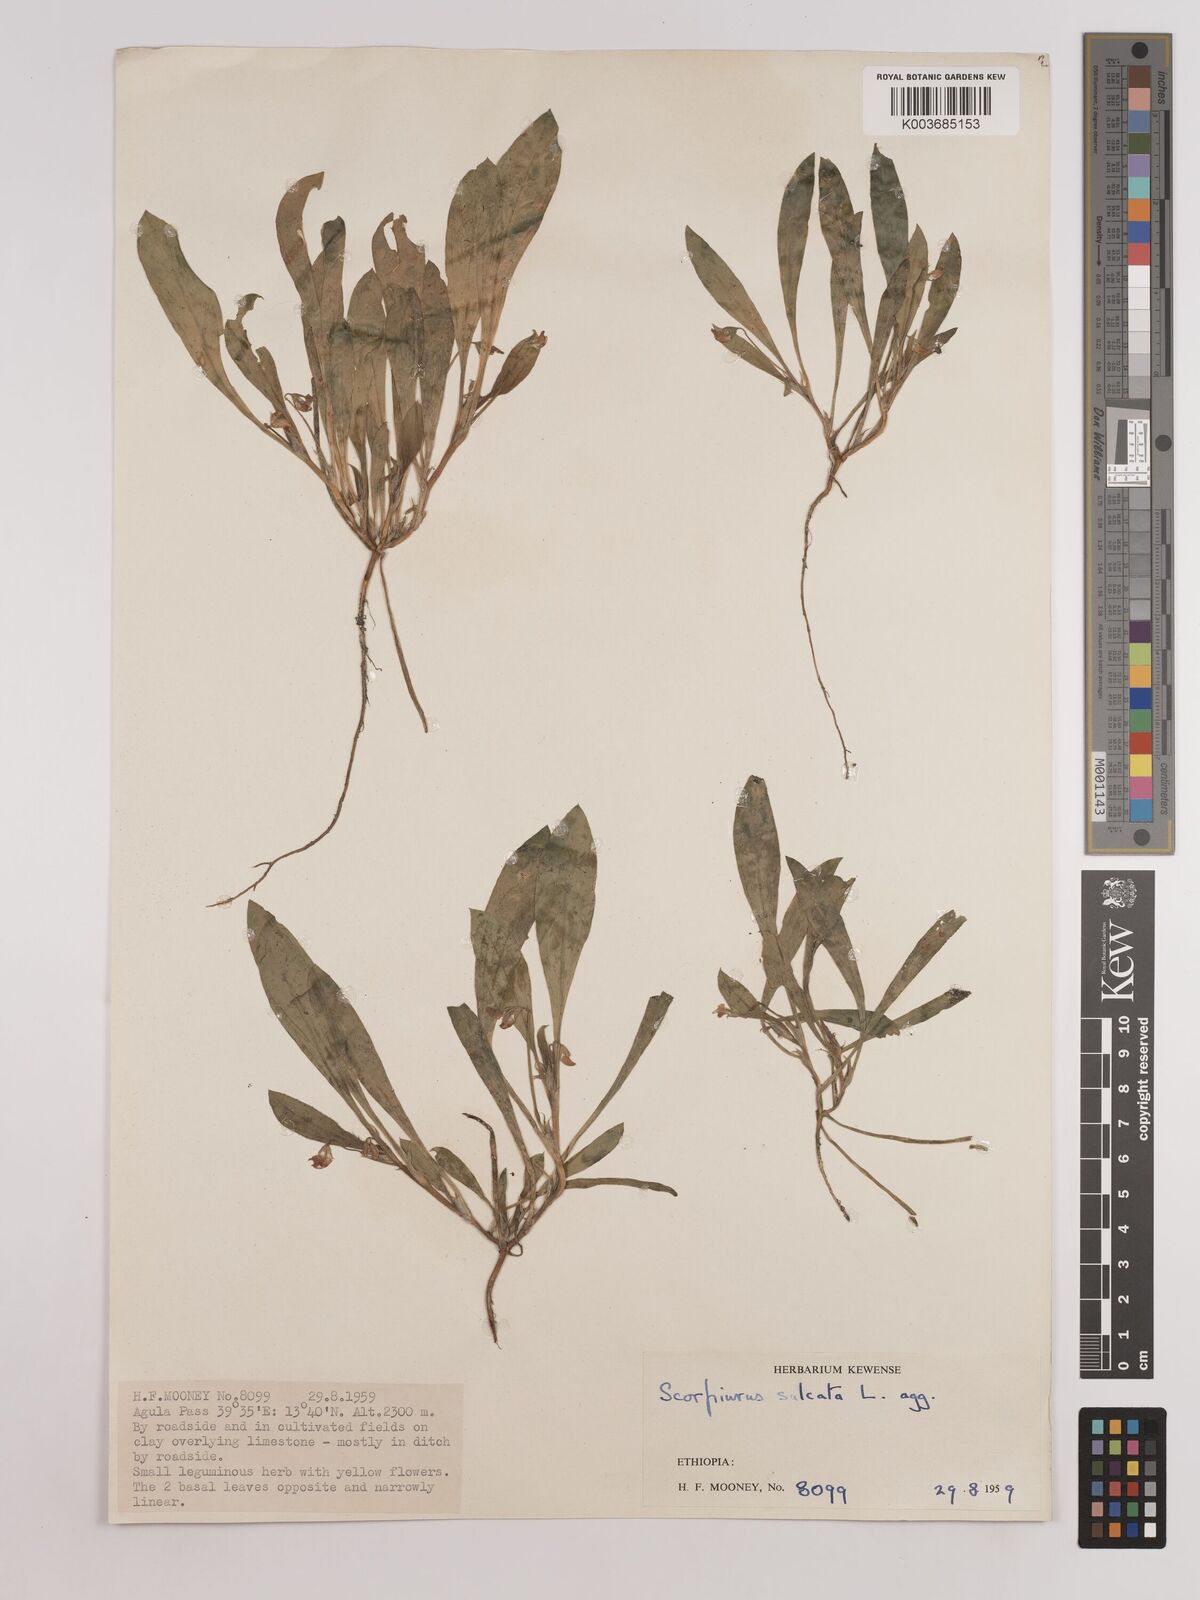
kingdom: Plantae
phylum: Tracheophyta
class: Magnoliopsida
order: Fabales
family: Fabaceae
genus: Scorpiurus
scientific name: Scorpiurus muricatus
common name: Caterpillar-plant
